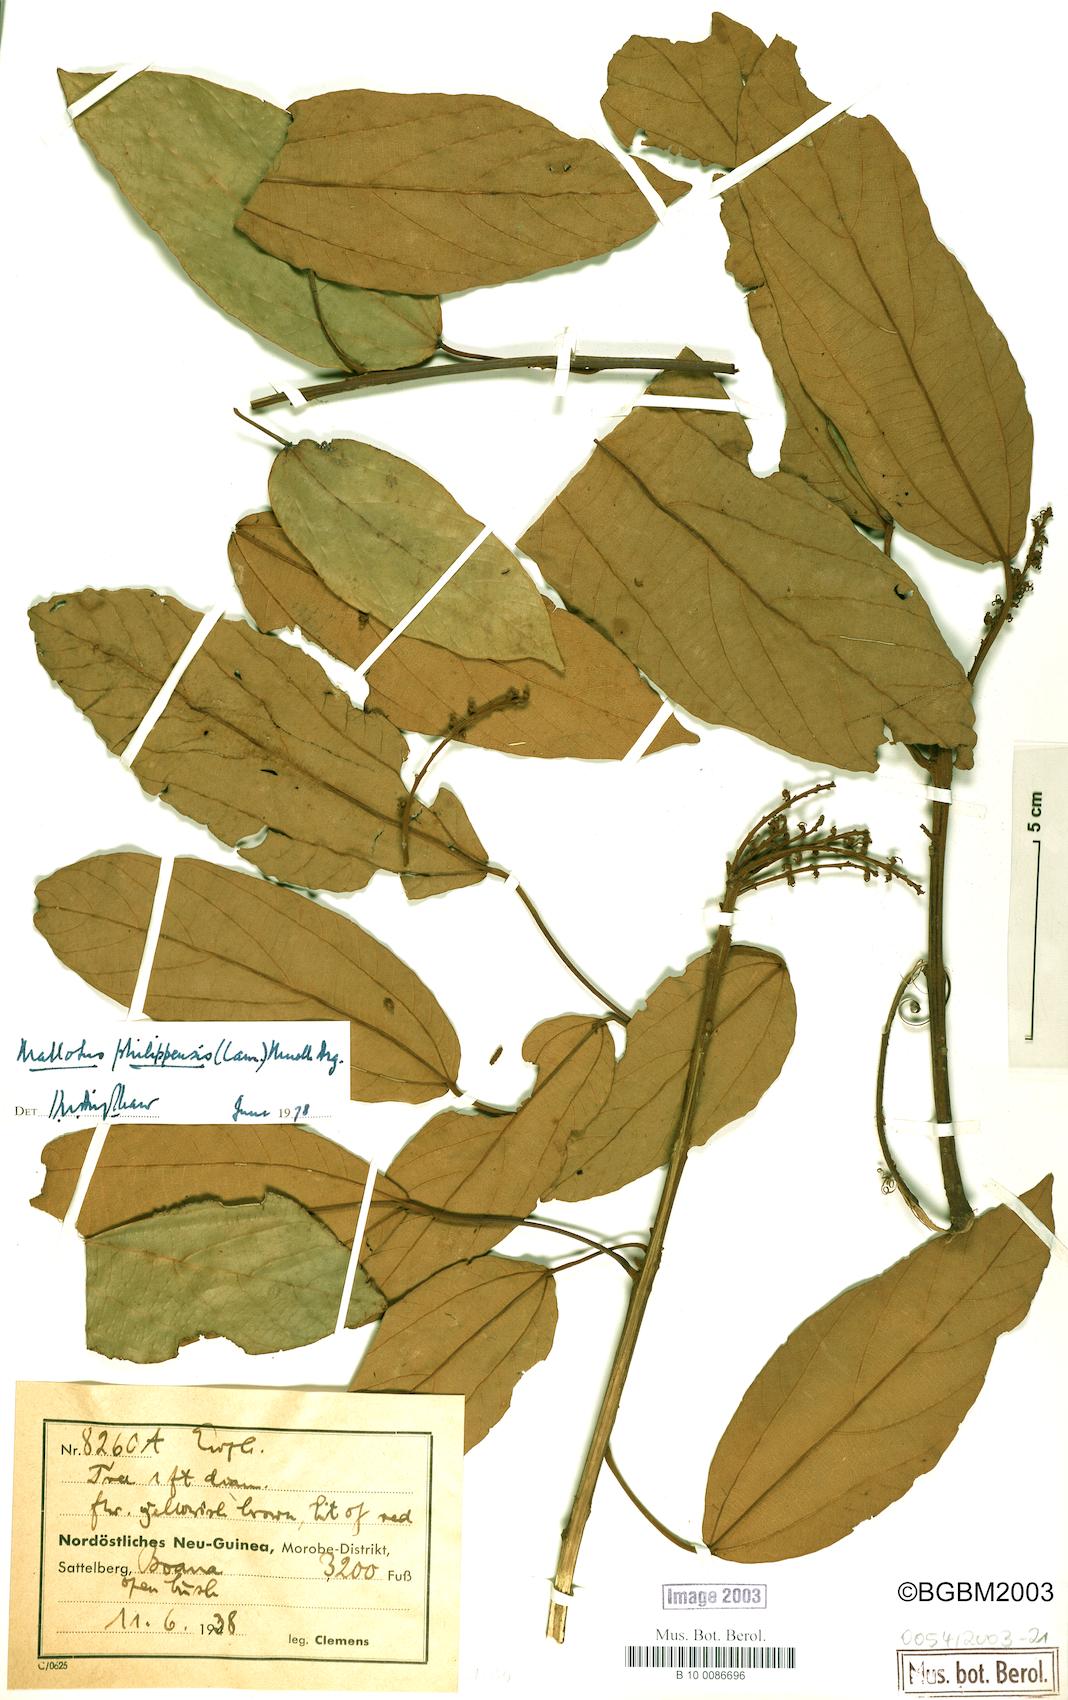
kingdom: Plantae
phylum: Tracheophyta
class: Magnoliopsida
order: Malpighiales
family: Euphorbiaceae
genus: Mallotus
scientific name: Mallotus philippensis
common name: Kamala tree
